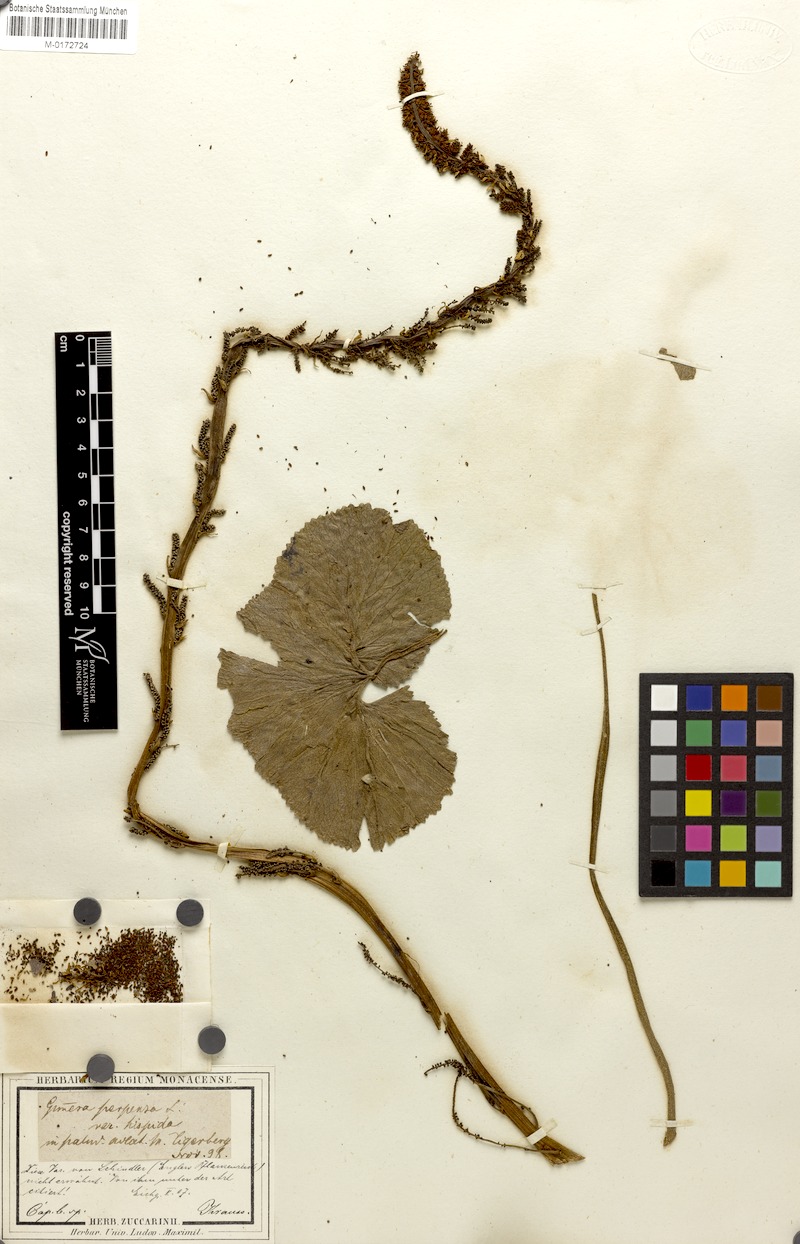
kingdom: Plantae
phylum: Tracheophyta
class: Magnoliopsida
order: Gunnerales
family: Gunneraceae
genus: Gunnera
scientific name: Gunnera perpensa
